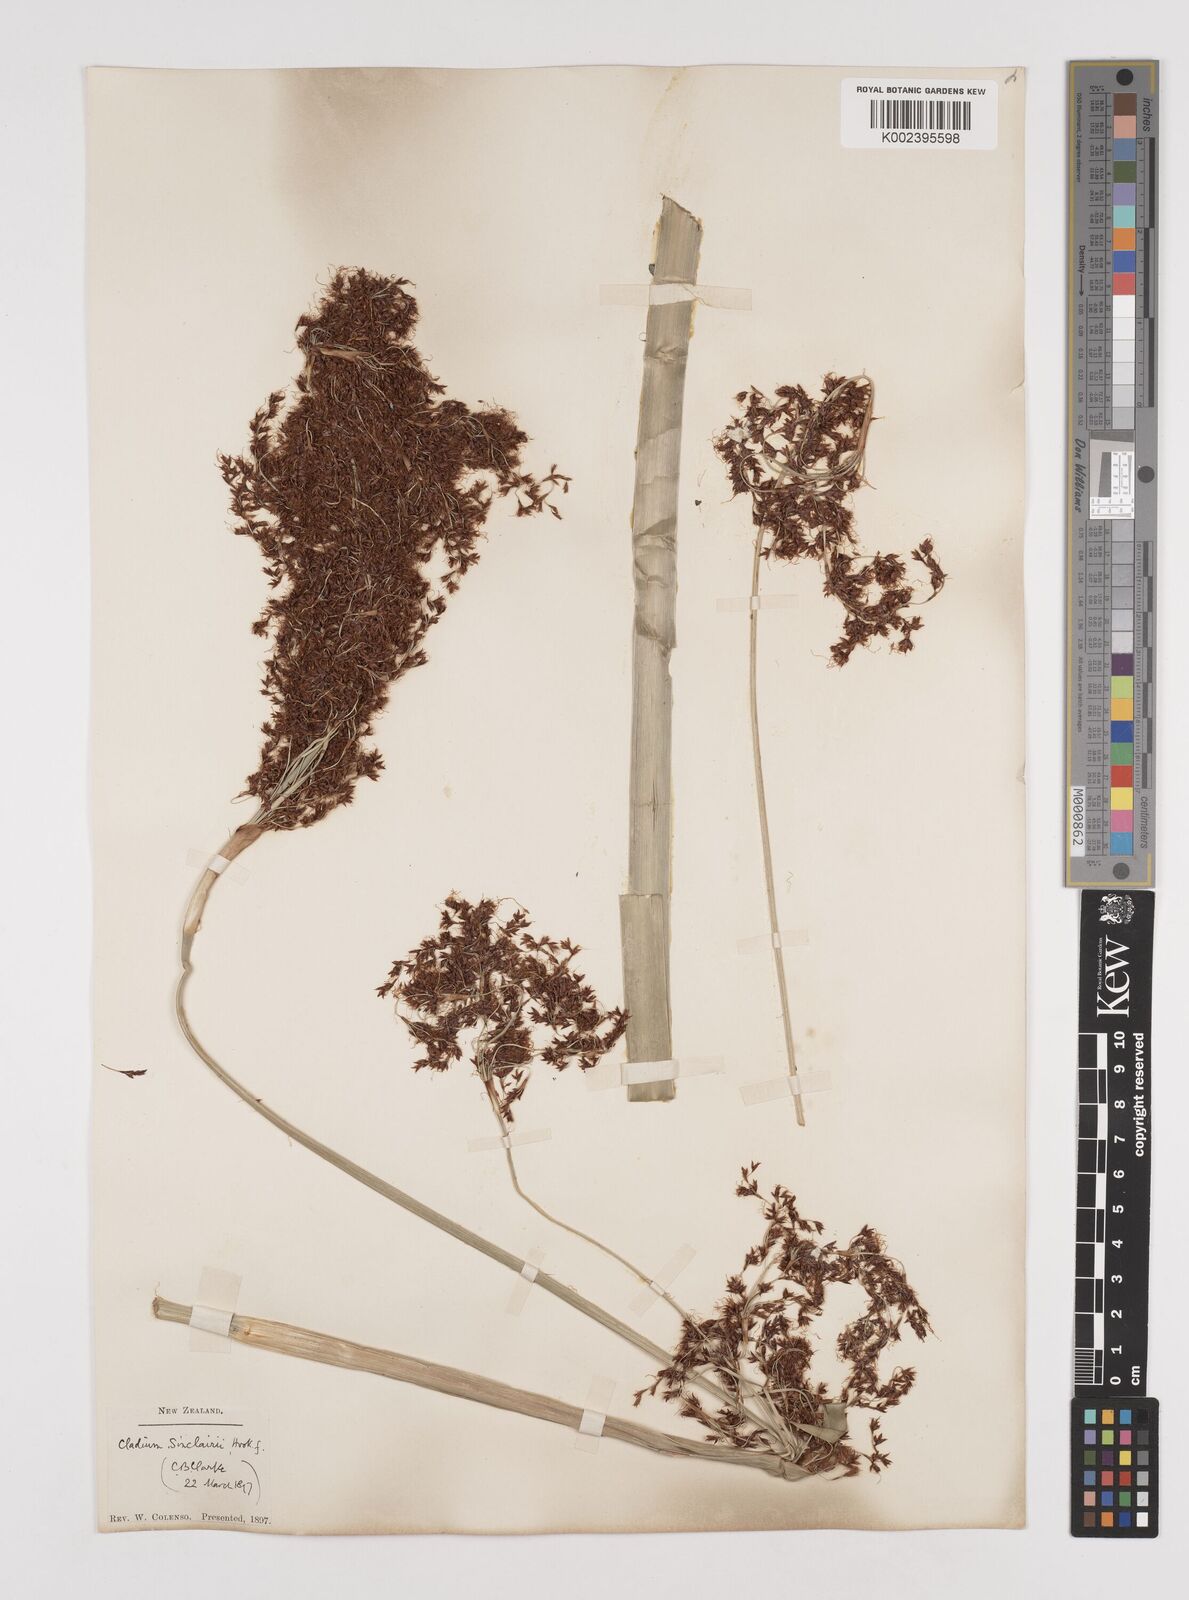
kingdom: Plantae
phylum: Tracheophyta
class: Liliopsida
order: Poales
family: Cyperaceae
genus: Machaerina
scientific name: Machaerina sinclairii
